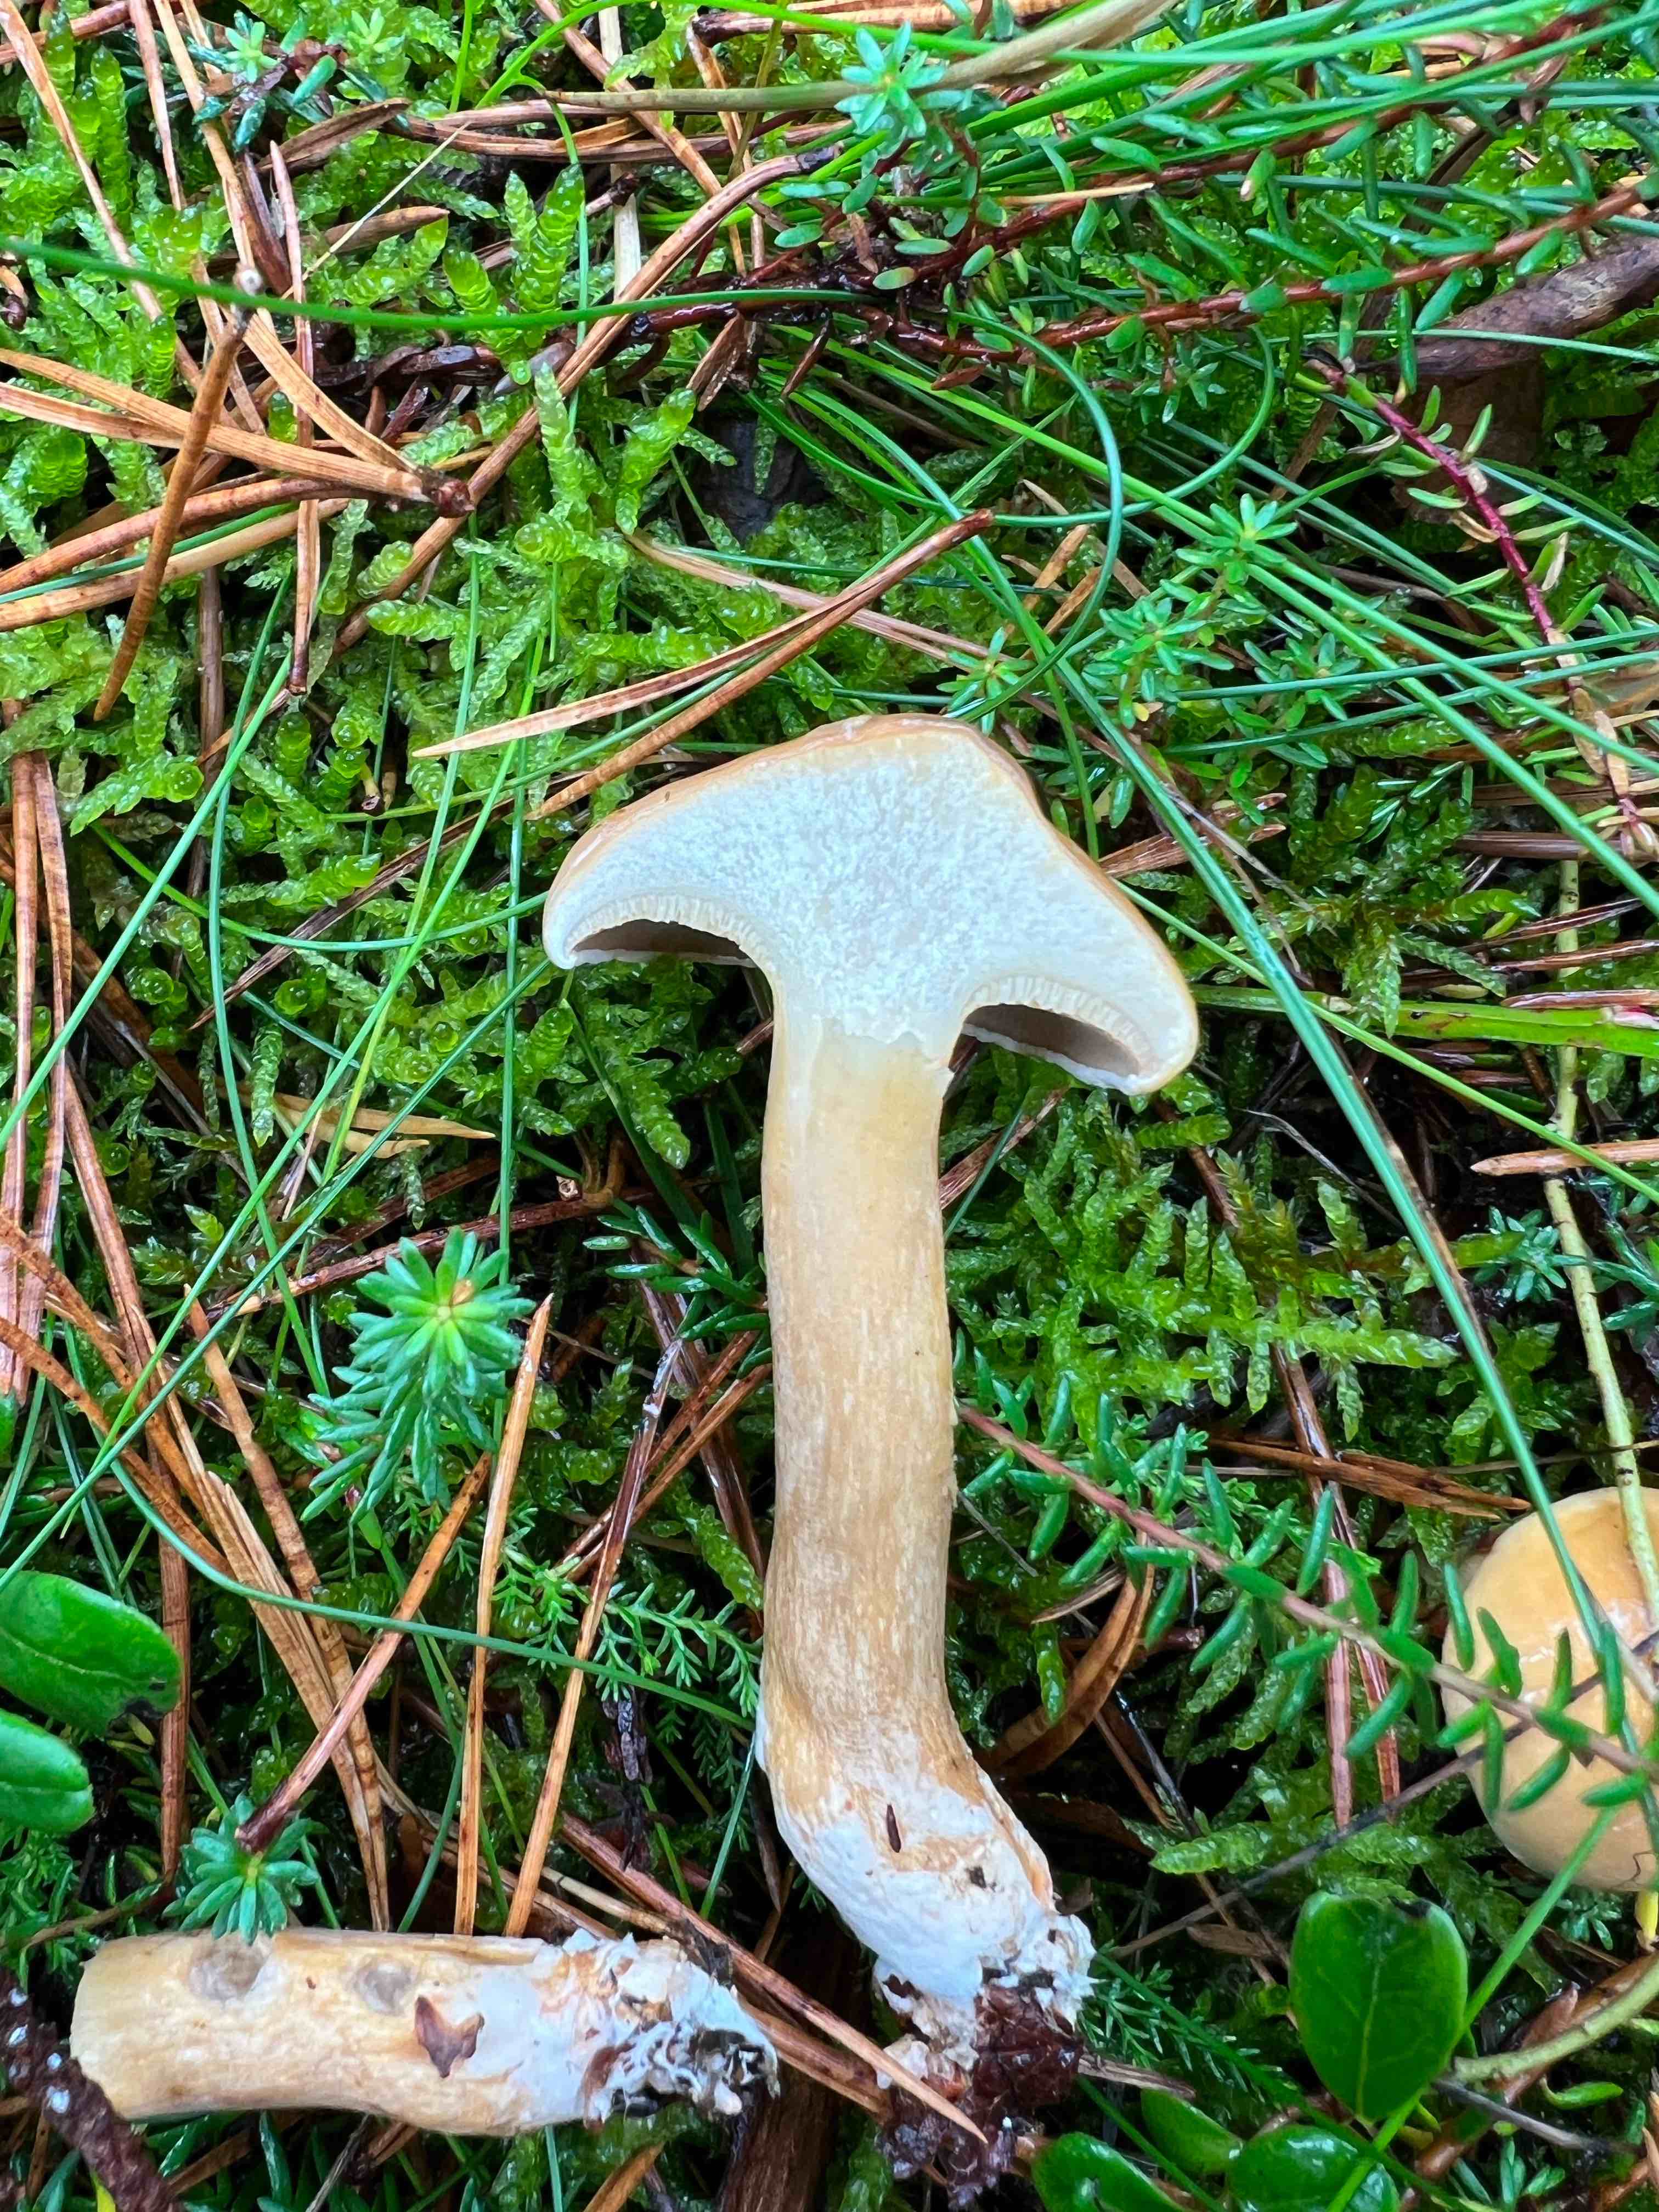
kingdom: Fungi
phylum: Basidiomycota
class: Agaricomycetes
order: Boletales
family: Suillaceae
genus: Suillus
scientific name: Suillus bovinus
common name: grovporet slimrørhat
